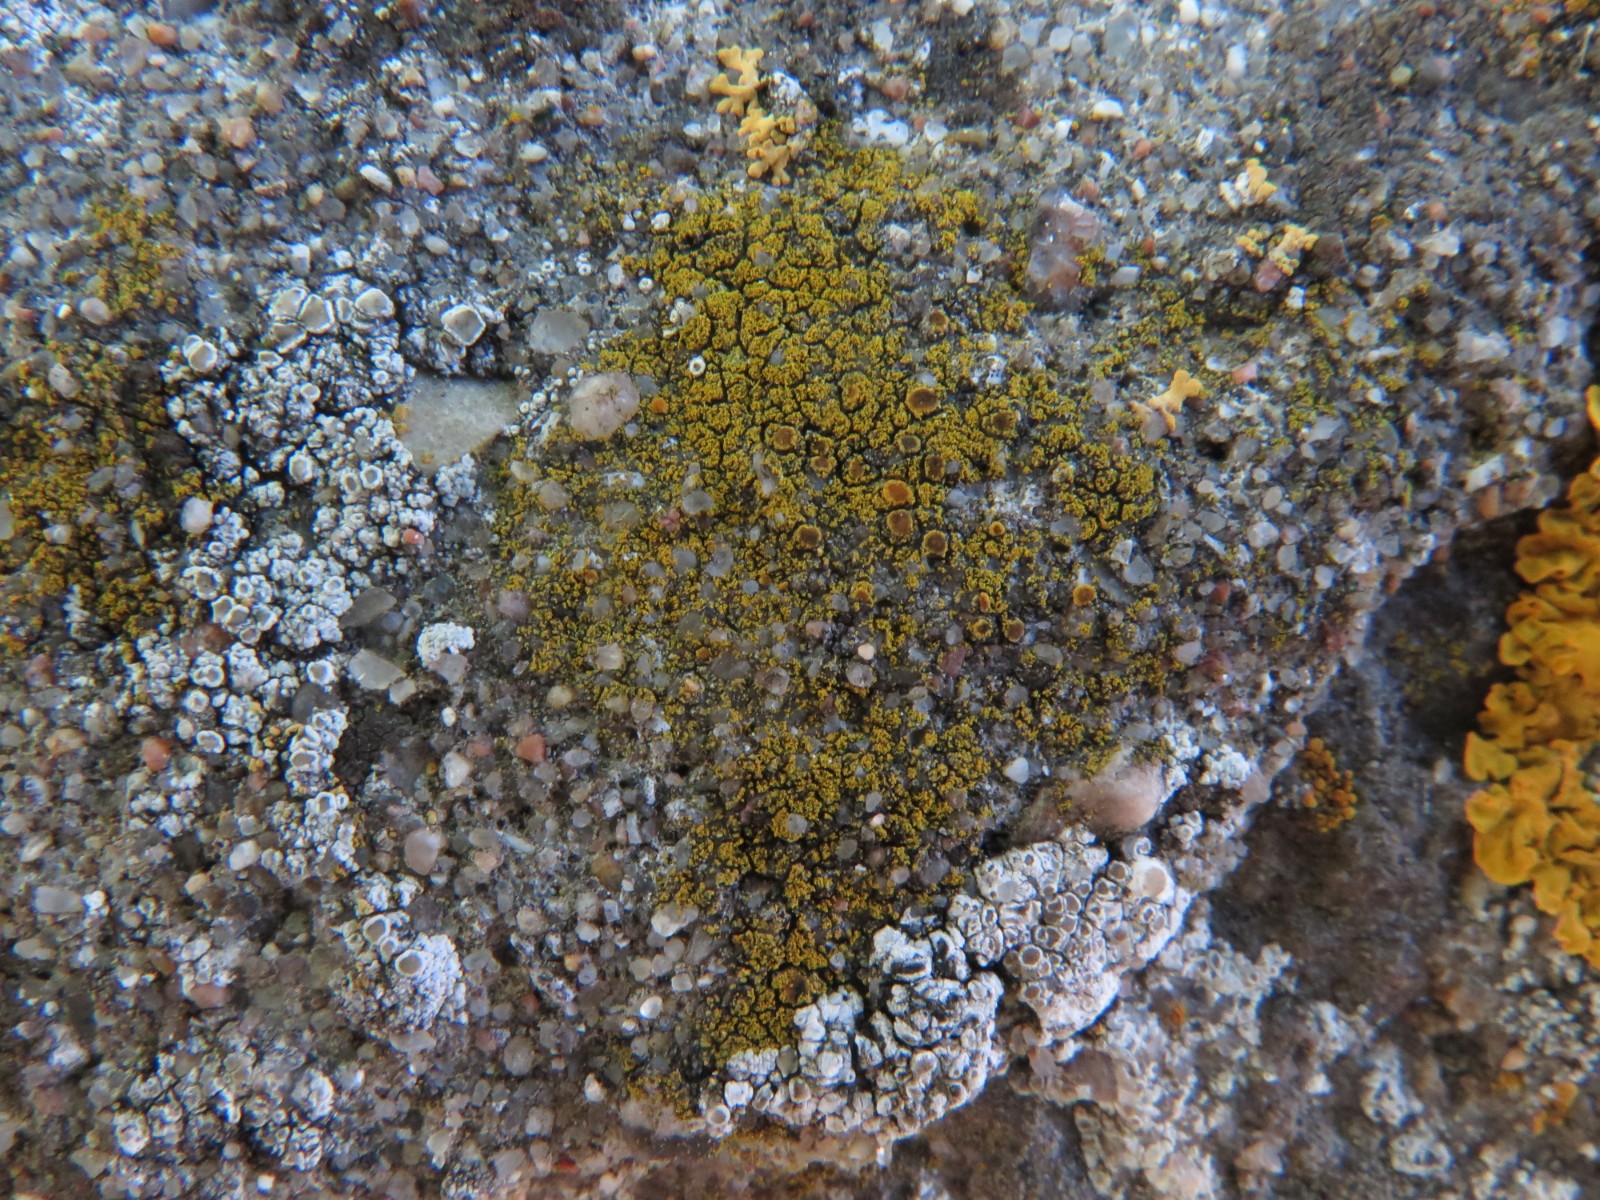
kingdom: Fungi
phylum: Ascomycota
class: Candelariomycetes
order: Candelariales
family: Candelariaceae
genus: Candelariella
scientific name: Candelariella vitellina
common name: almindelig æggeblommelav
